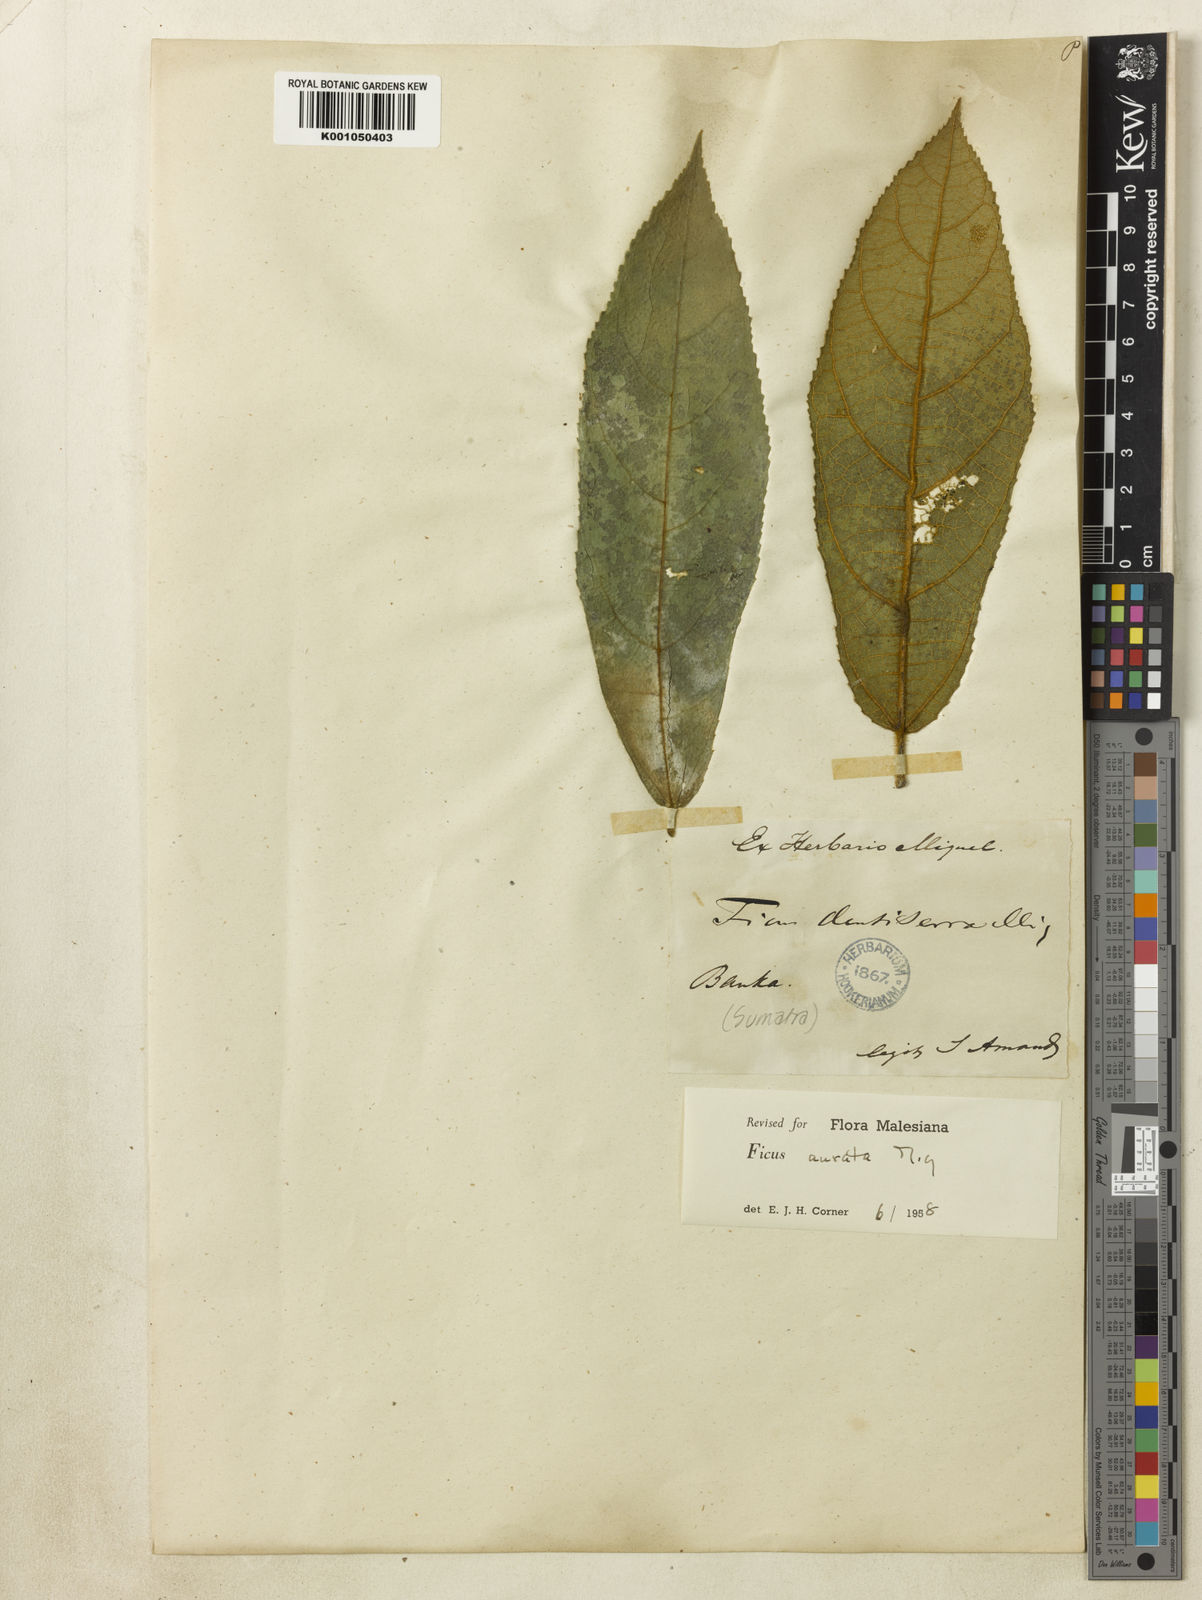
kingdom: Plantae
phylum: Tracheophyta
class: Magnoliopsida
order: Rosales
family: Moraceae
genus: Ficus
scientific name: Ficus aurata
